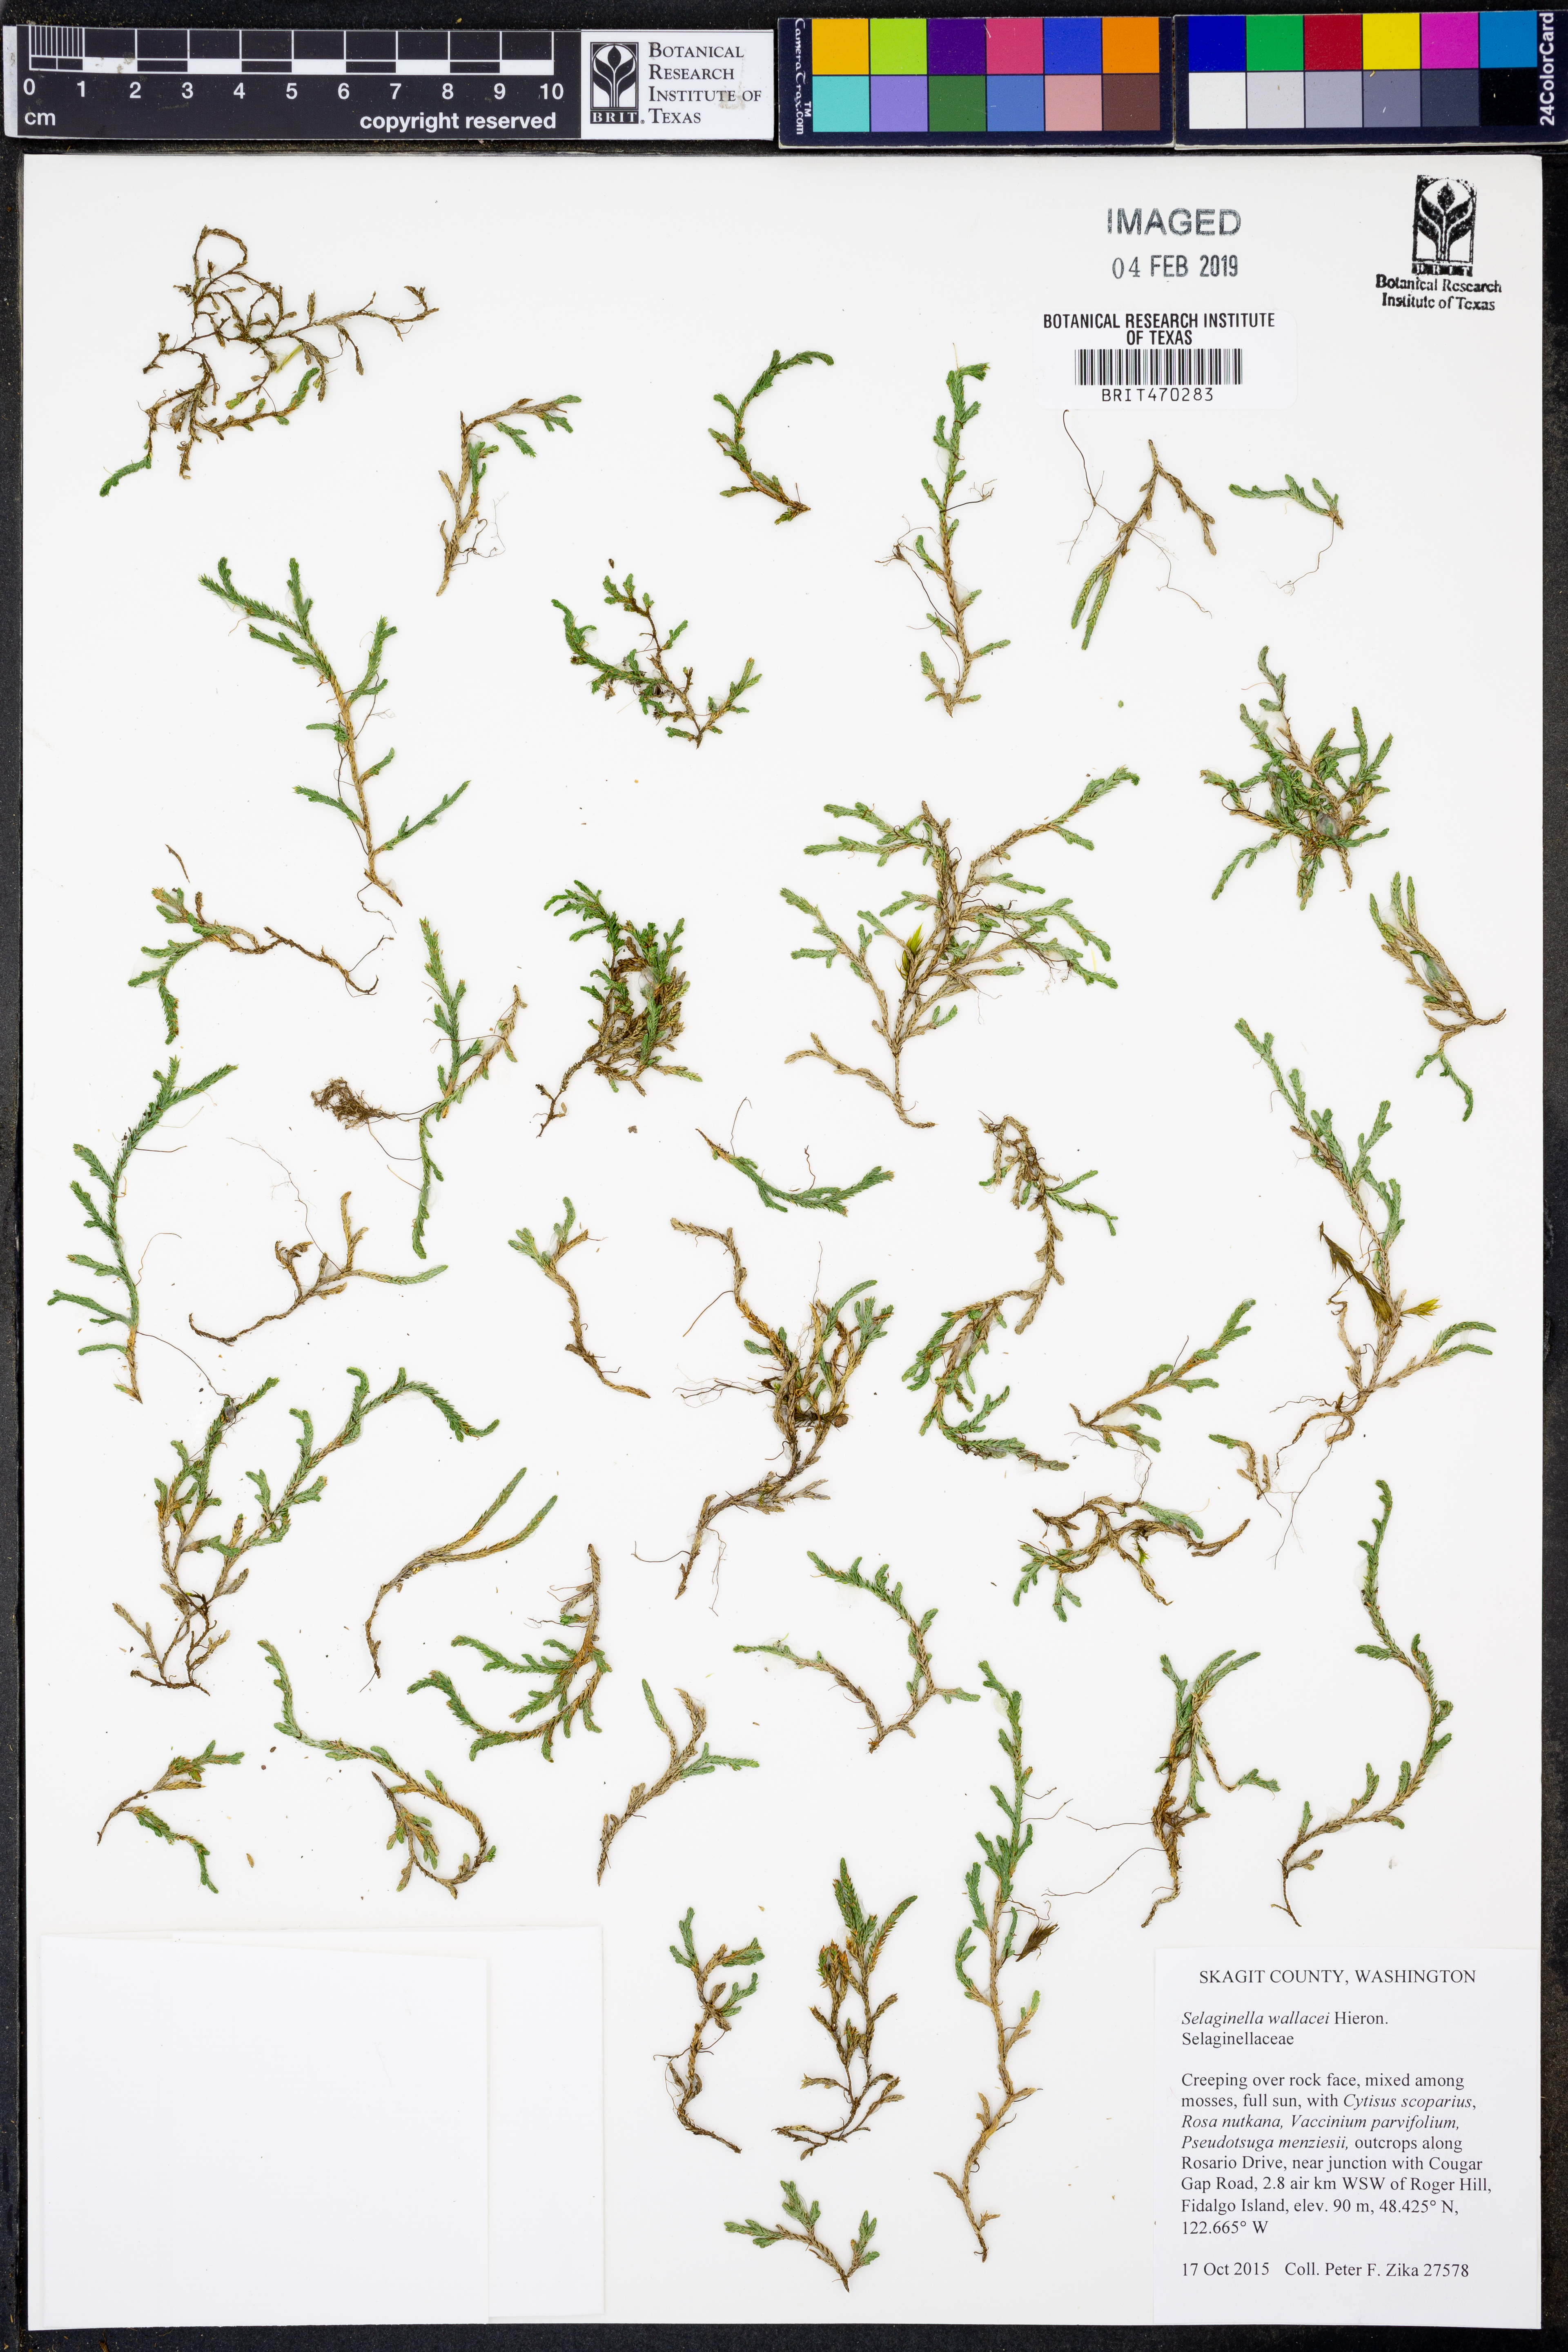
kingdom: Plantae
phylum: Tracheophyta
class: Lycopodiopsida
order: Selaginellales
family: Selaginellaceae
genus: Selaginella
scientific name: Selaginella wallacei
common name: Wallace's selaginella
